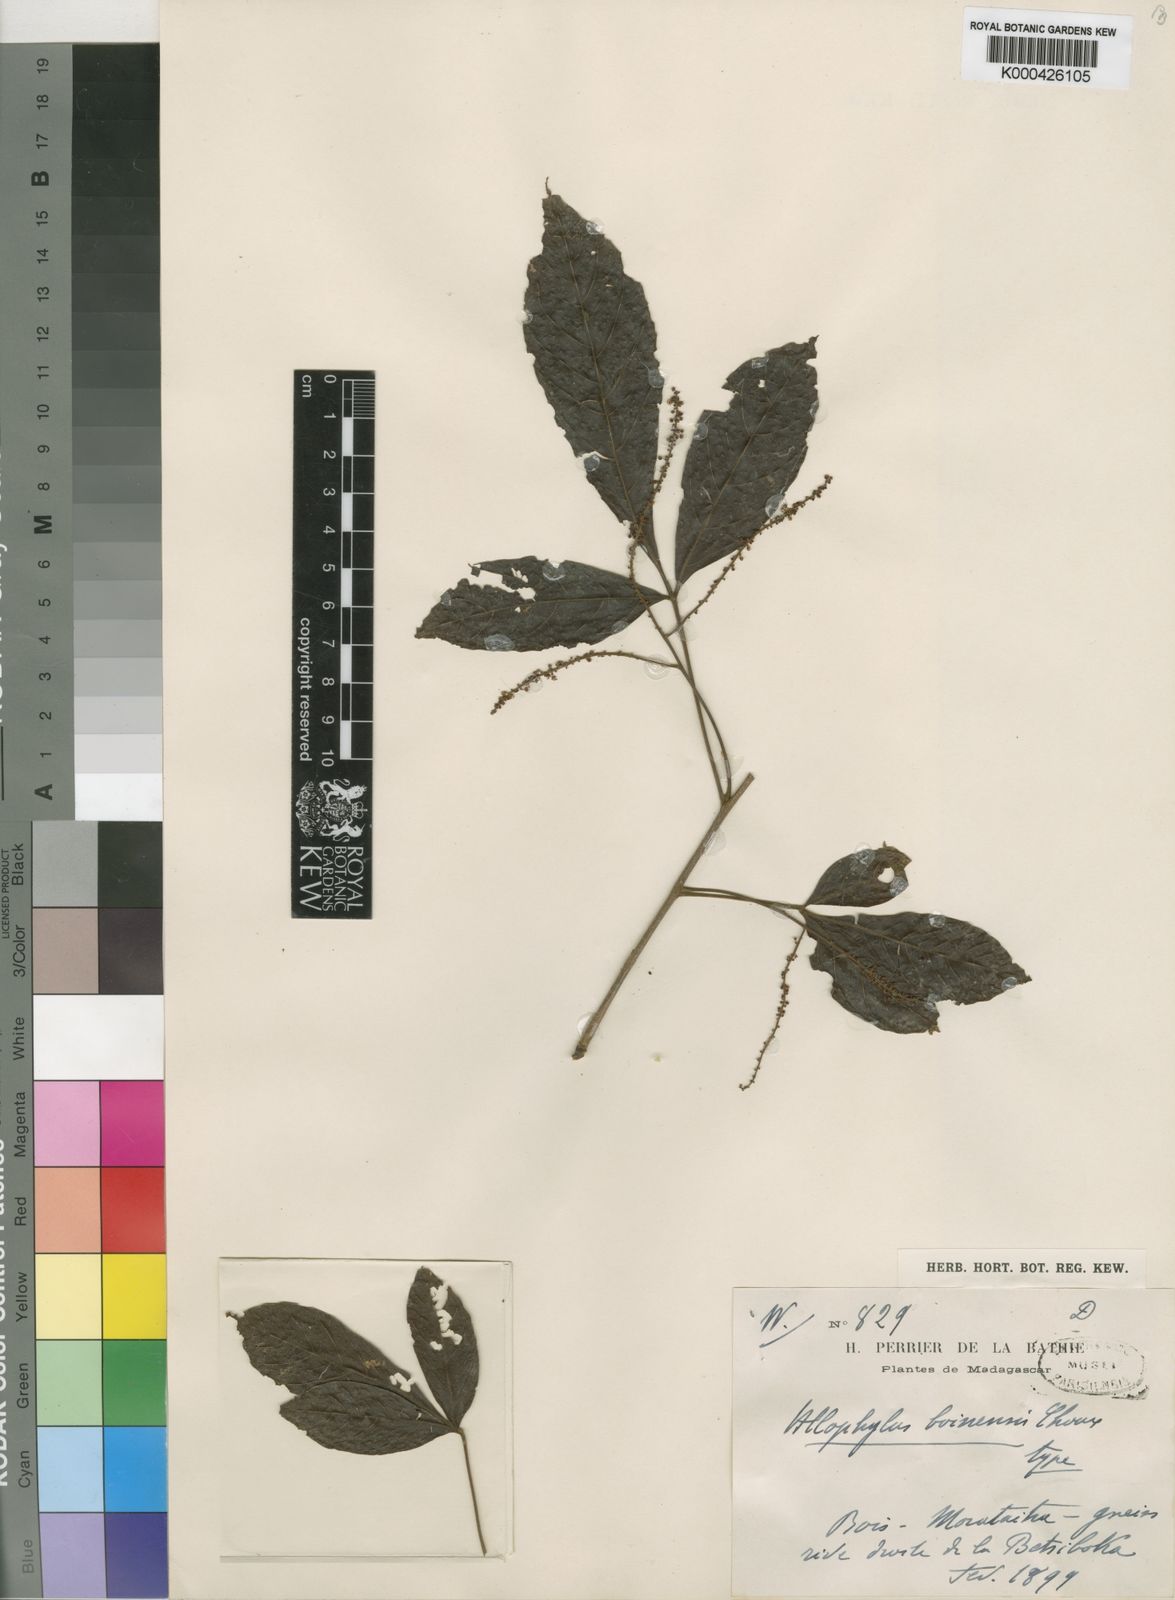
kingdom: Plantae
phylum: Tracheophyta
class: Magnoliopsida
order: Sapindales
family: Sapindaceae
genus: Allophylus
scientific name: Allophylus boinensis
